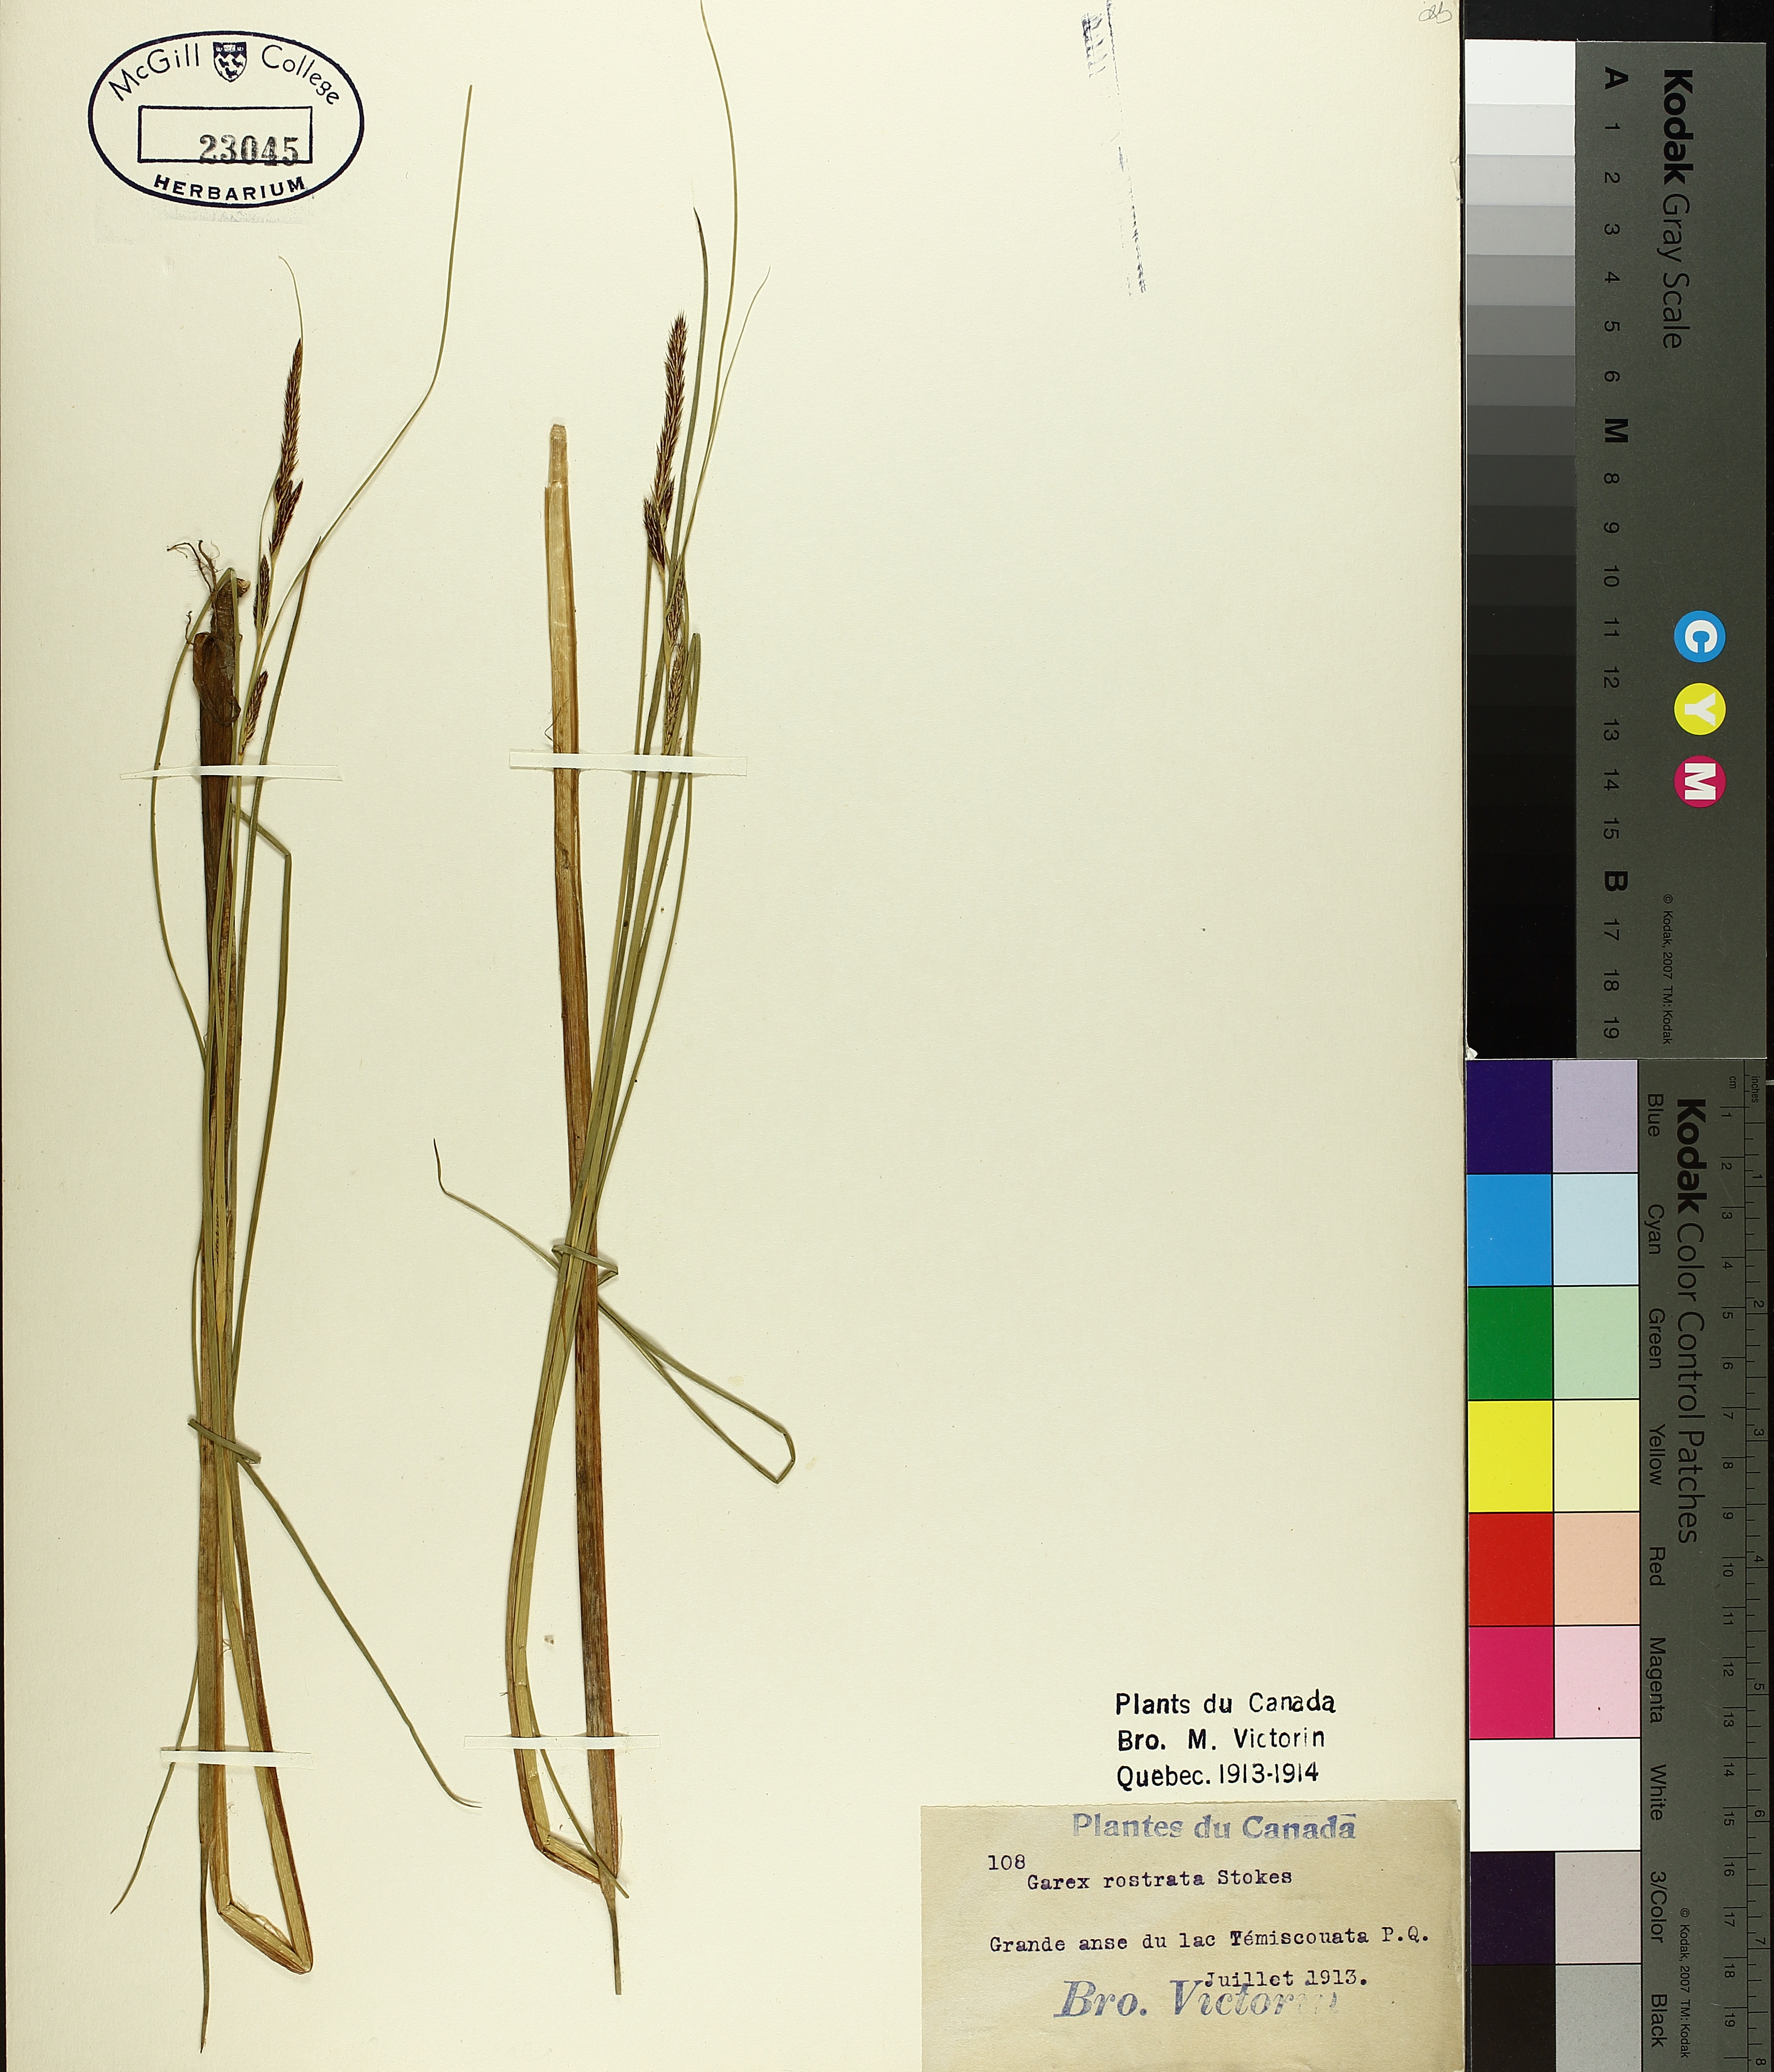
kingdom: Plantae
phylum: Tracheophyta
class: Liliopsida
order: Poales
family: Cyperaceae
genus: Carex
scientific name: Carex rostrata
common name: Bottle sedge
